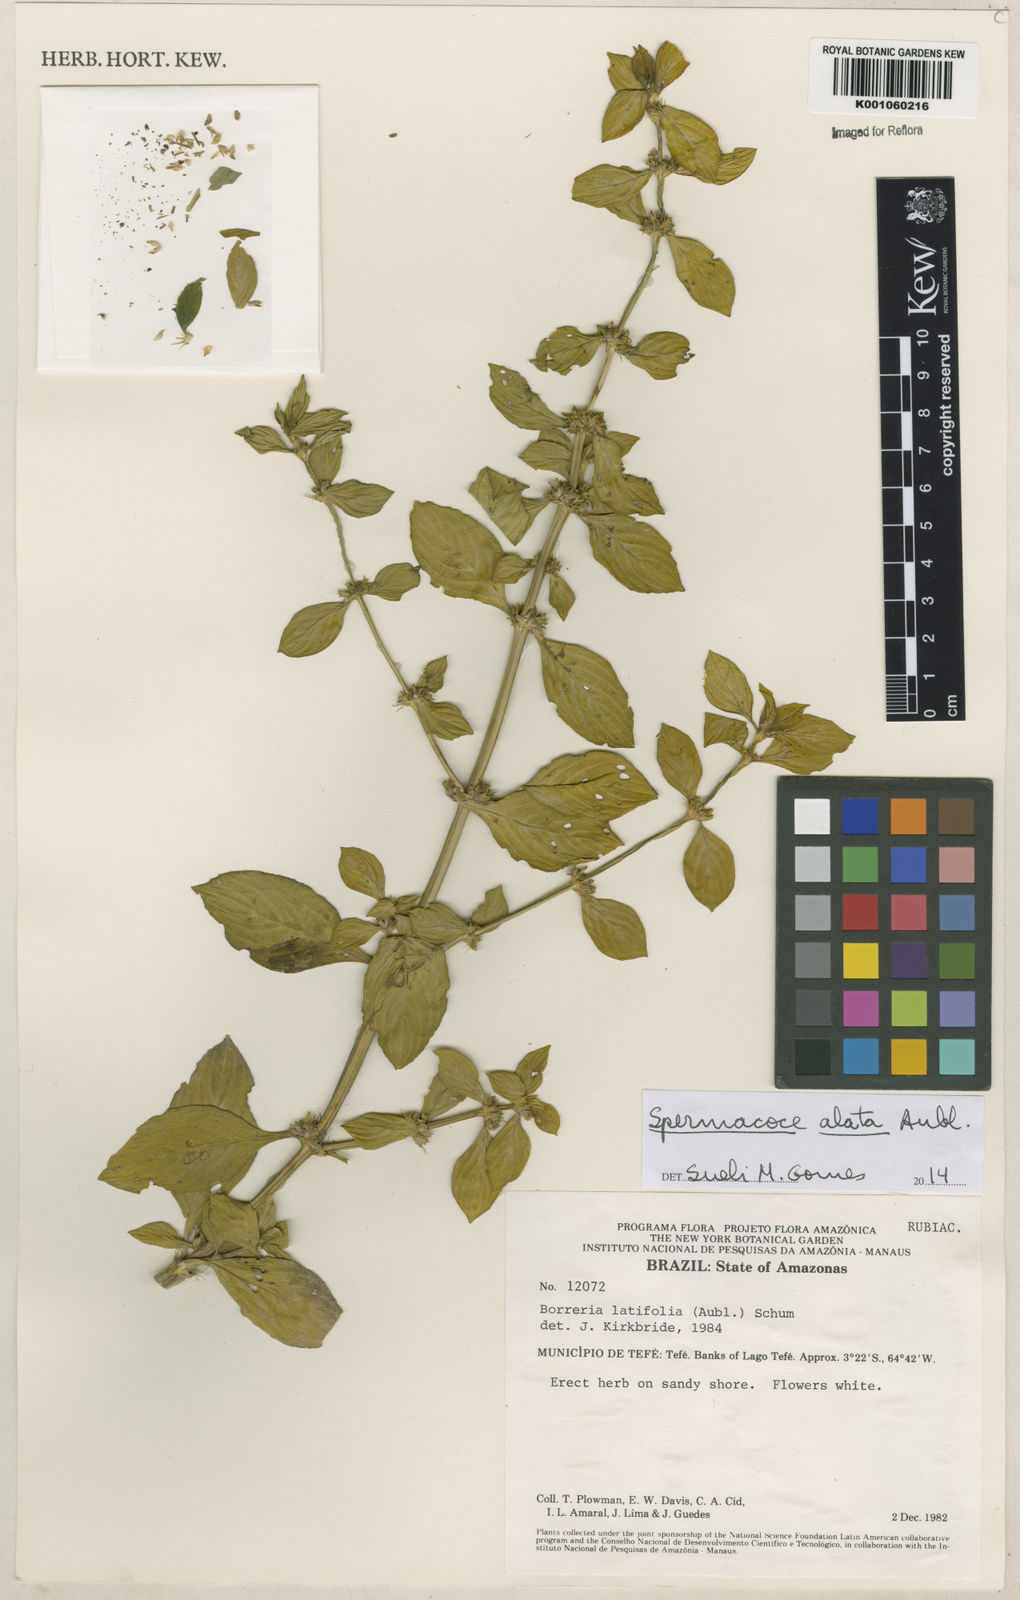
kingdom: Plantae
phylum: Tracheophyta
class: Magnoliopsida
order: Gentianales
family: Rubiaceae
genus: Spermacoce
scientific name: Spermacoce
